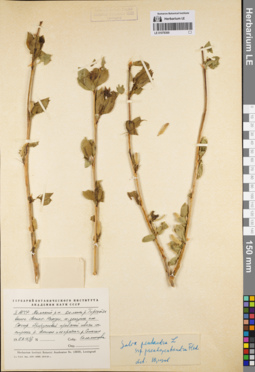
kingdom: Plantae
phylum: Tracheophyta
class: Magnoliopsida
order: Malpighiales
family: Salicaceae
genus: Salix
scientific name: Salix pseudopentandra
